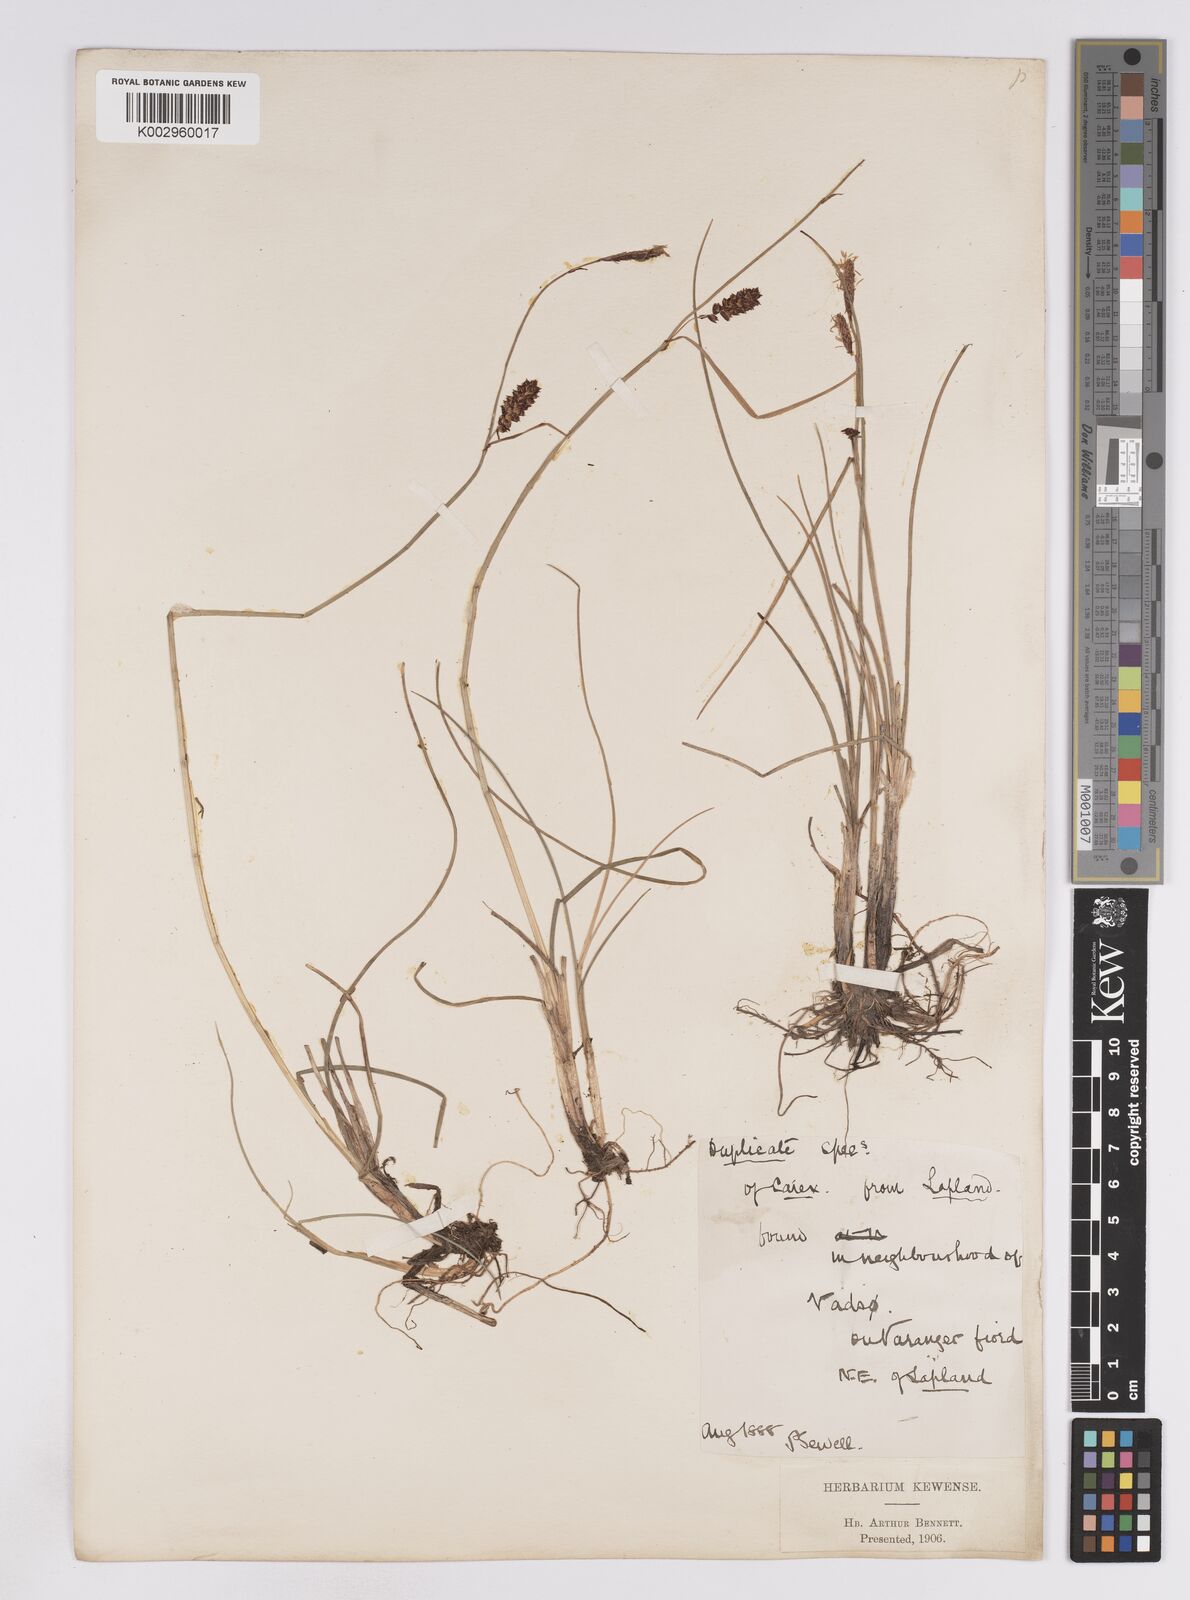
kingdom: Plantae
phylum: Tracheophyta
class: Liliopsida
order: Poales
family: Cyperaceae
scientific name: Cyperaceae
